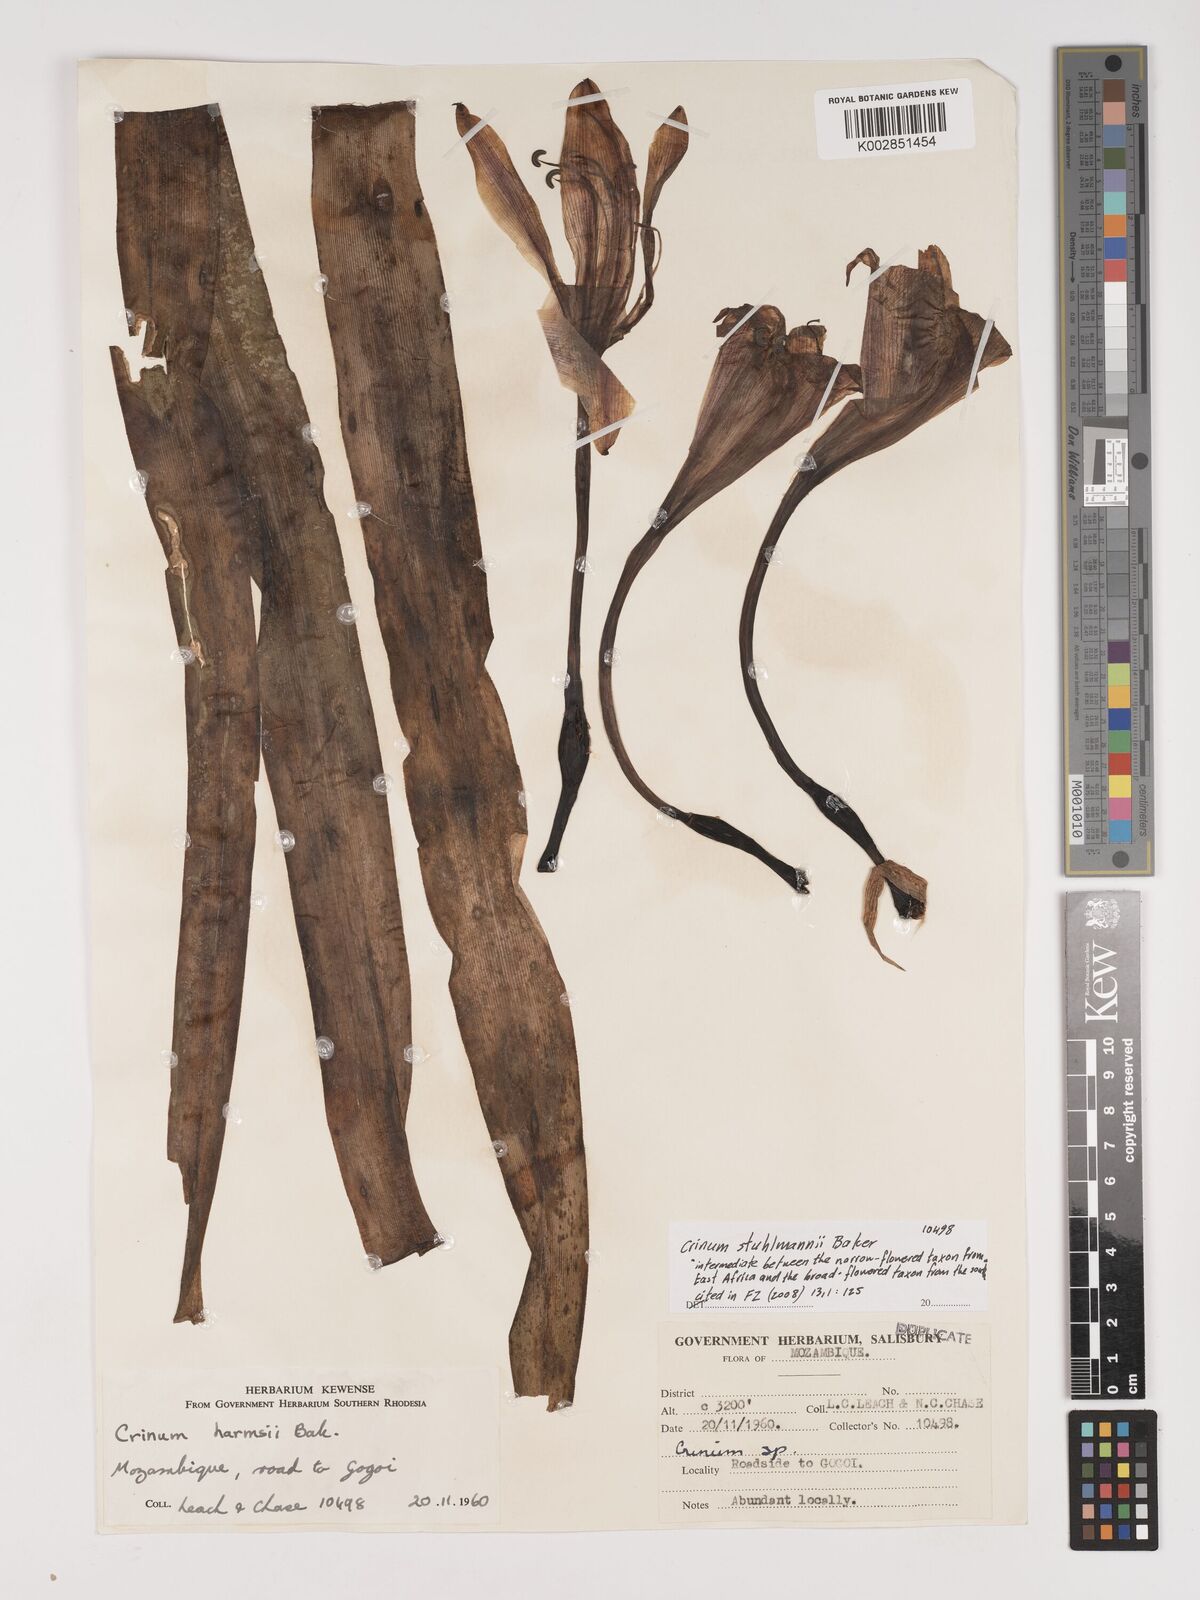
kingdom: Plantae
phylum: Tracheophyta
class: Liliopsida
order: Asparagales
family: Amaryllidaceae
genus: Crinum
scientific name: Crinum stuhlmannii
